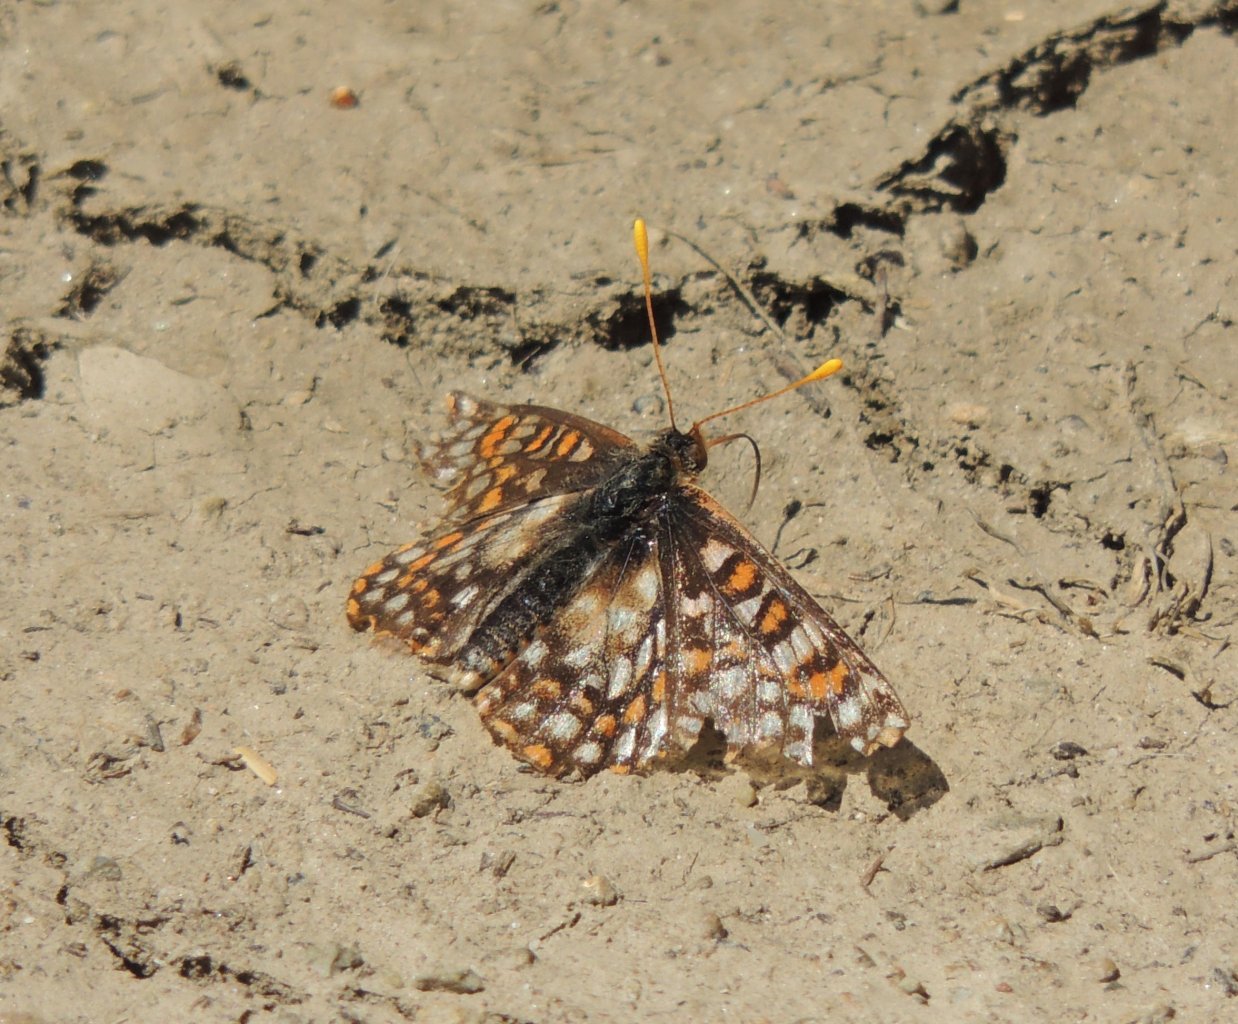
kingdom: Animalia
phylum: Arthropoda
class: Insecta
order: Lepidoptera
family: Nymphalidae
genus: Occidryas
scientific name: Occidryas editha
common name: Edith's Checkerspot
